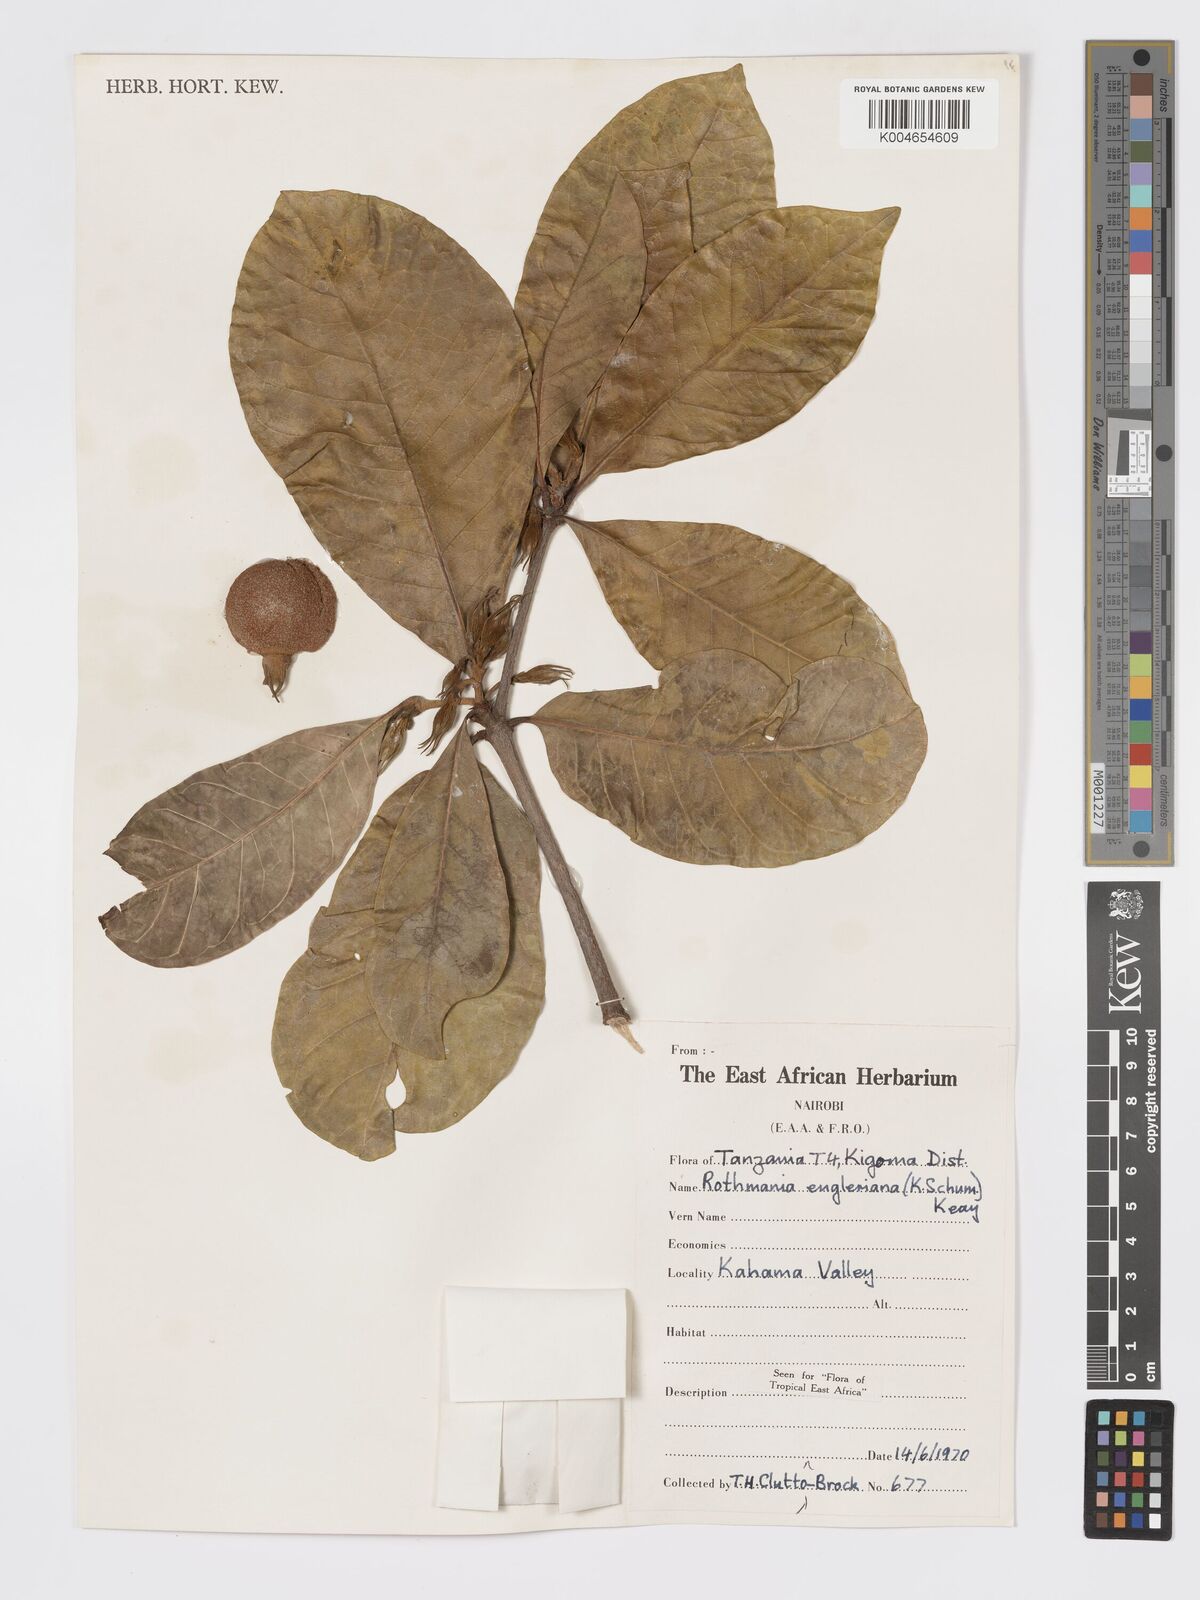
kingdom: Plantae
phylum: Tracheophyta
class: Magnoliopsida
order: Gentianales
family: Rubiaceae
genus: Rothmannia
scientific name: Rothmannia engleriana
